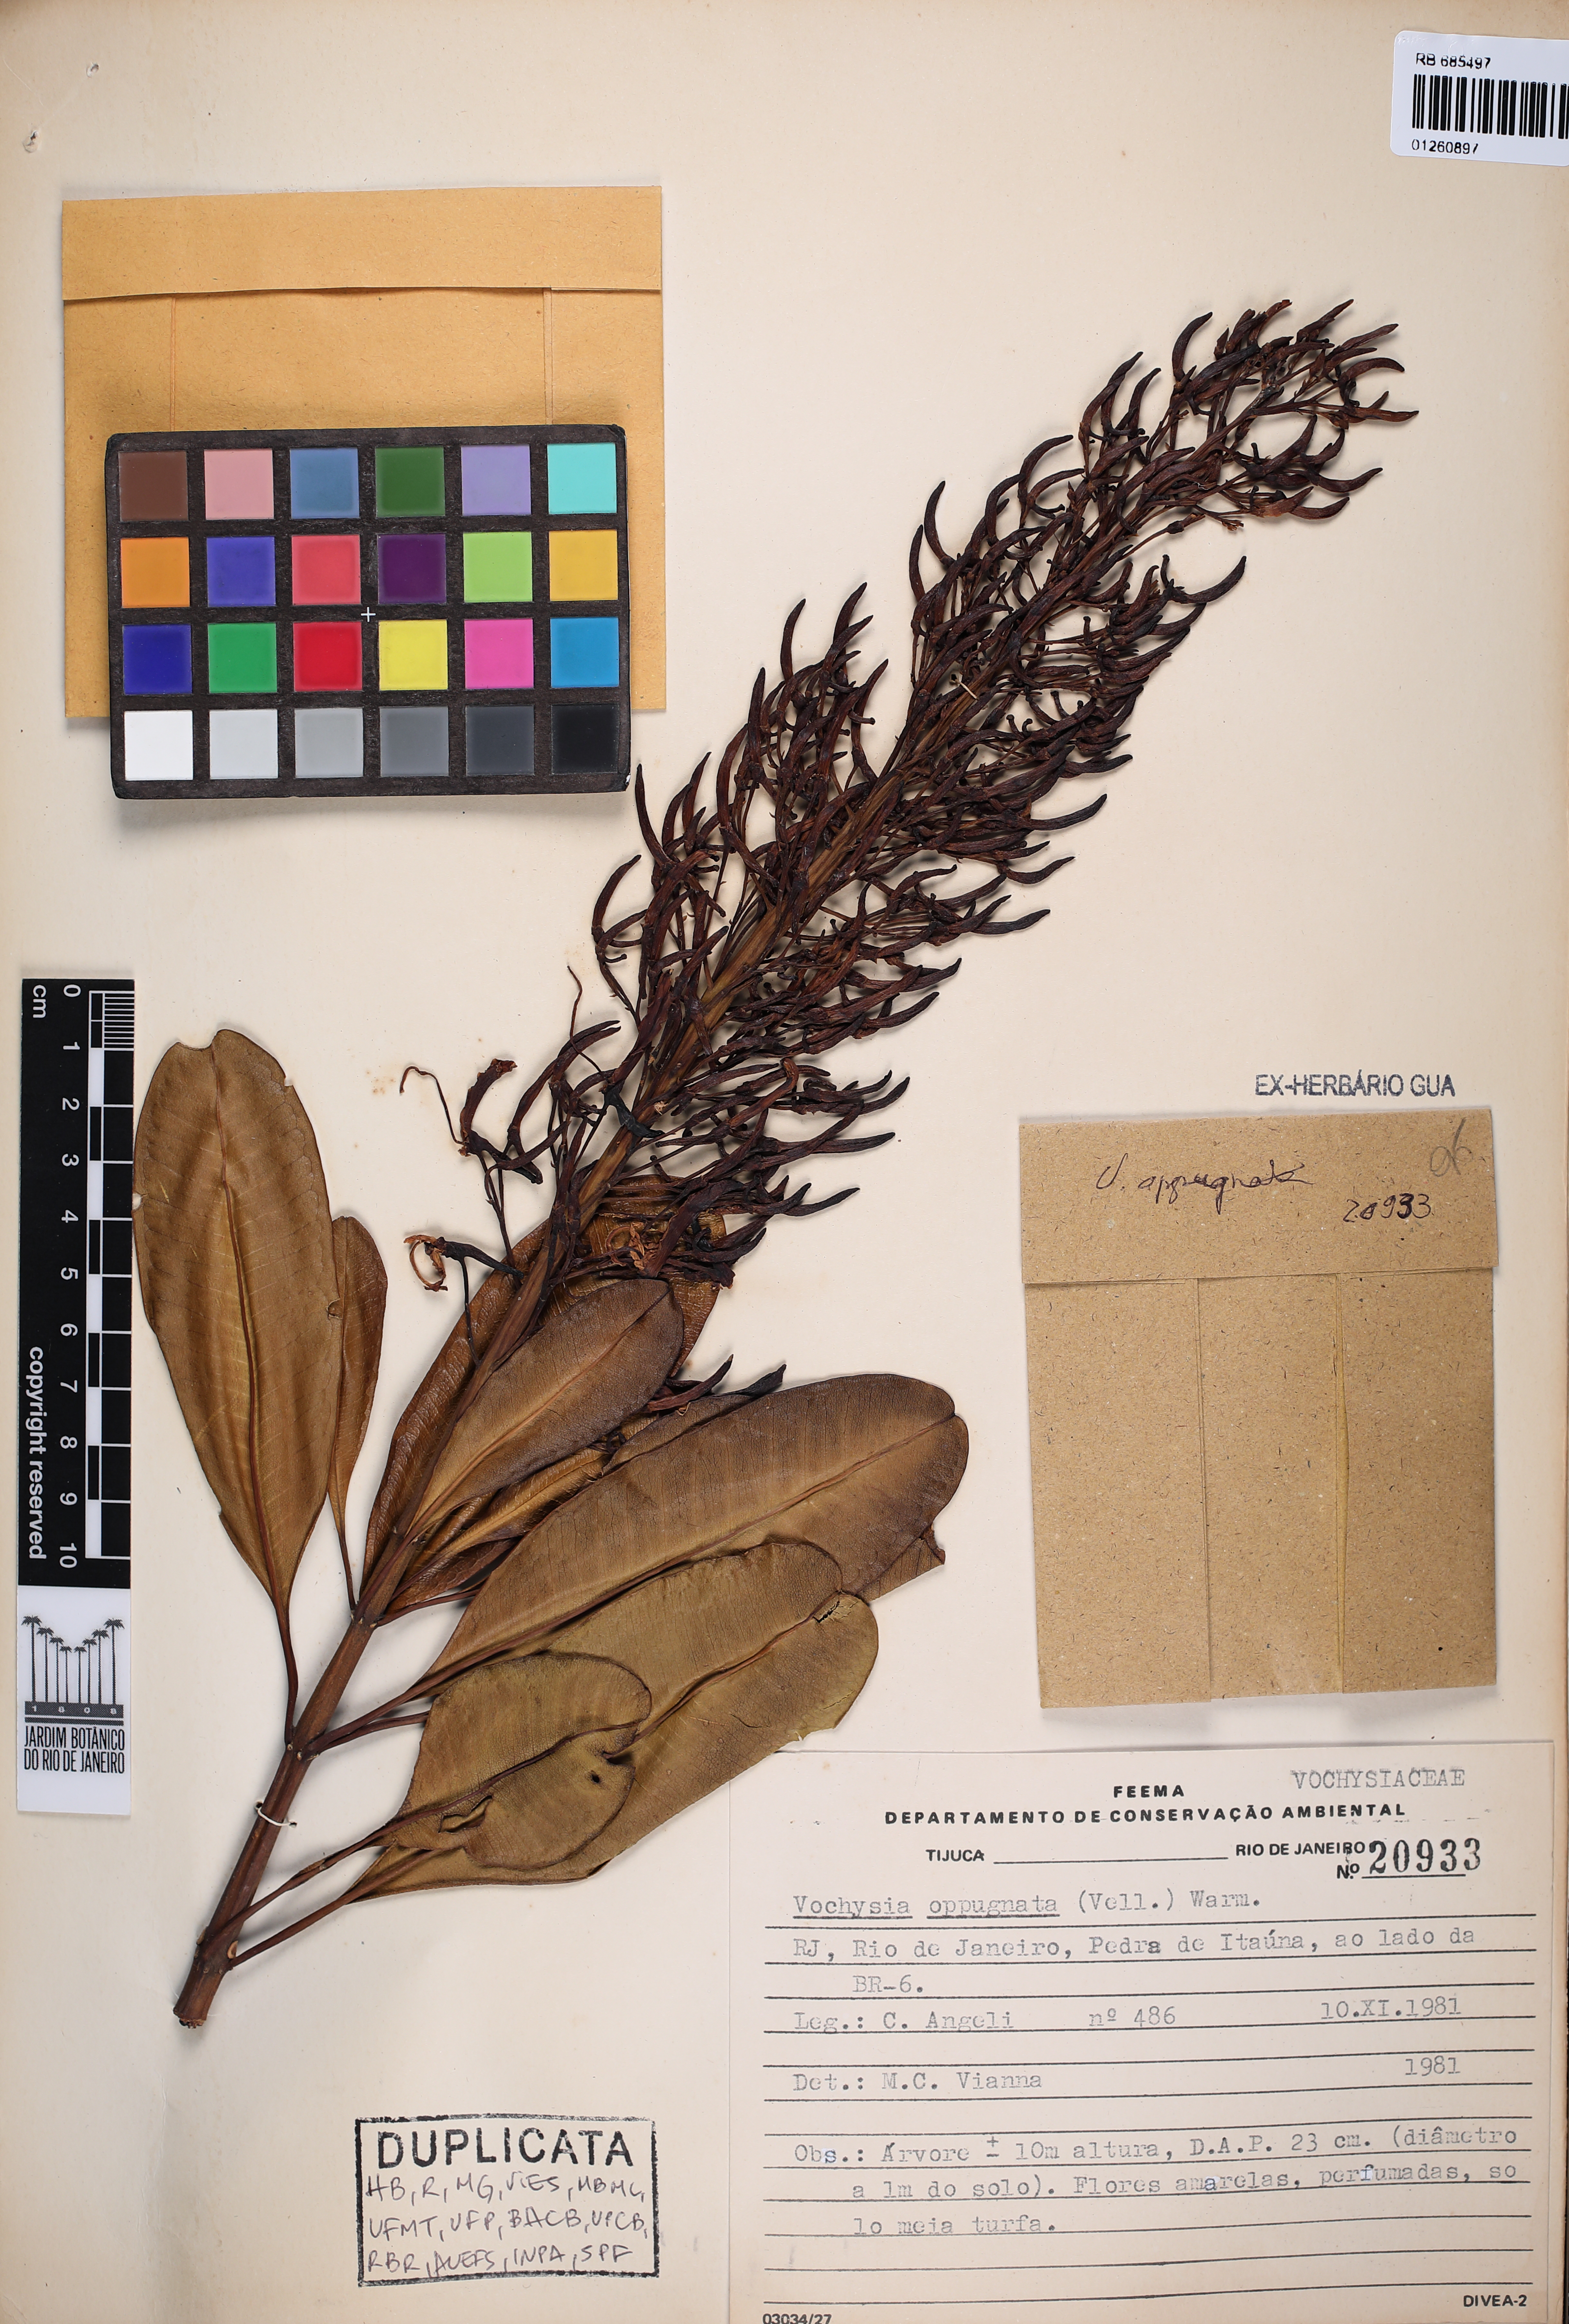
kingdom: Plantae
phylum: Tracheophyta
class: Magnoliopsida
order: Myrtales
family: Vochysiaceae
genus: Vochysia
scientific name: Vochysia oppugnata
